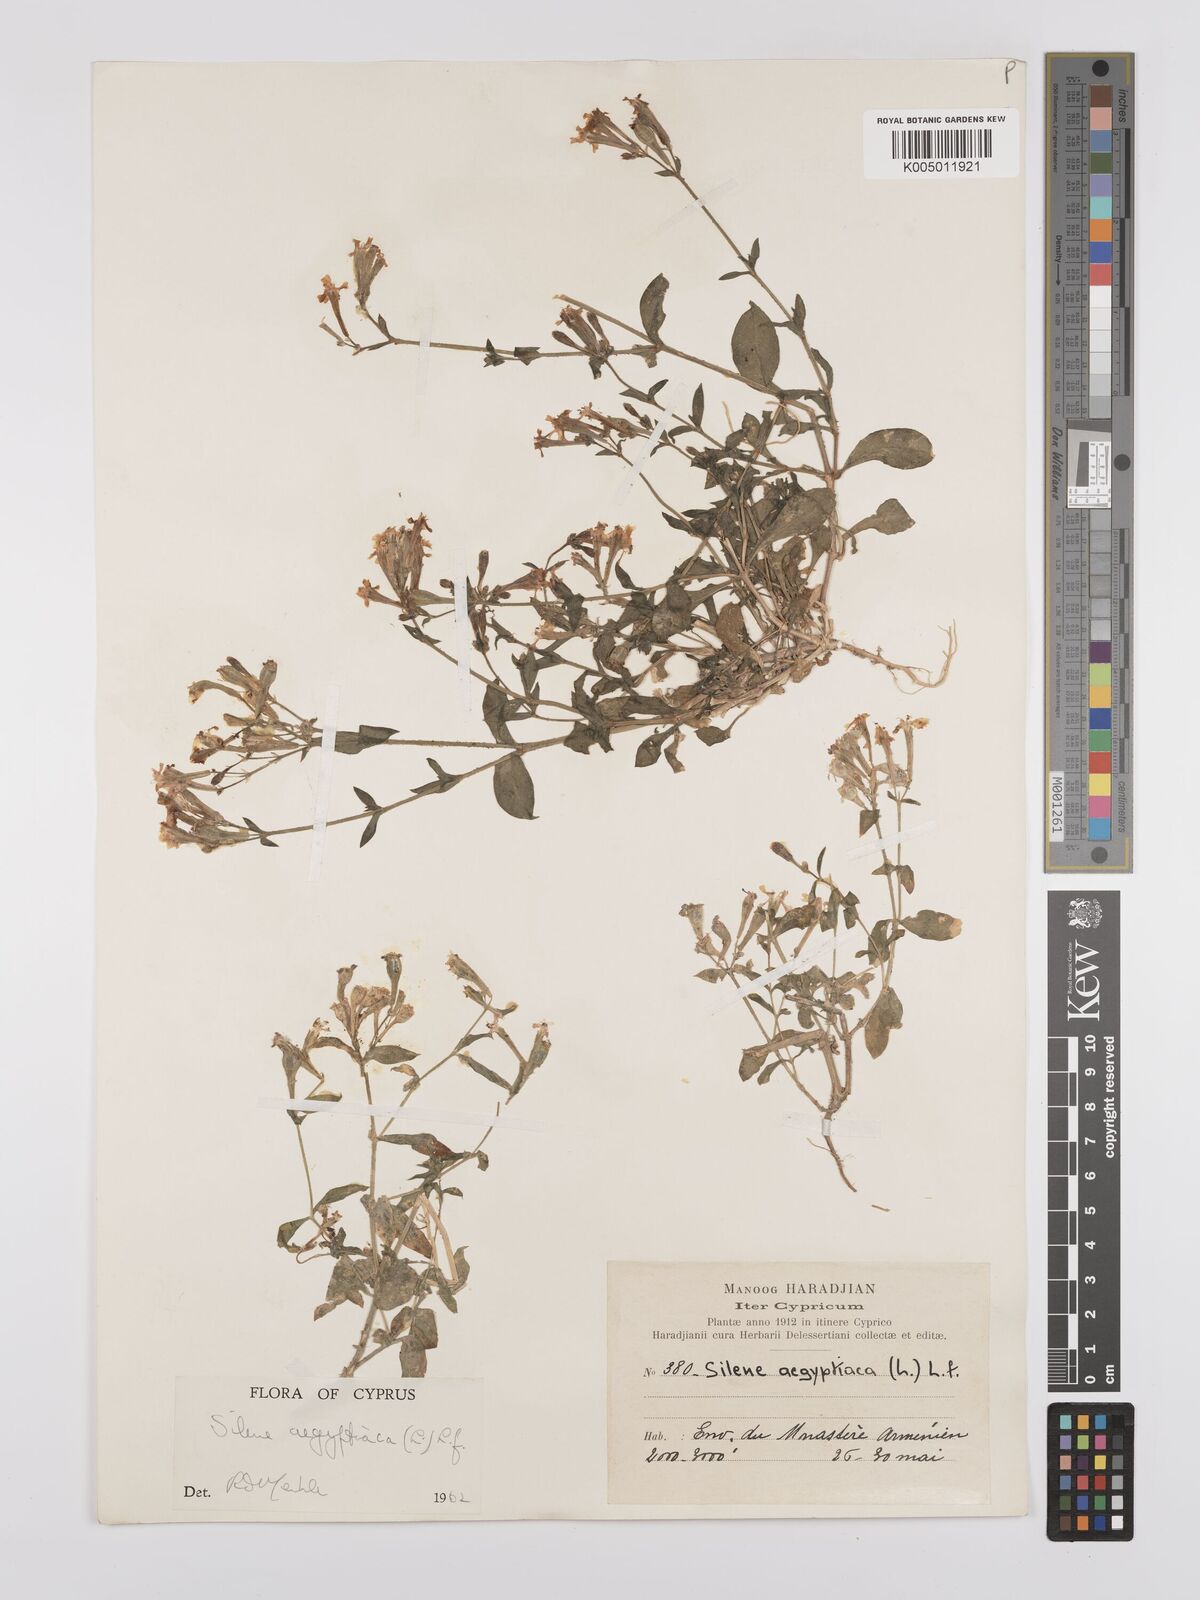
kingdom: Plantae
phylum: Tracheophyta
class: Magnoliopsida
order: Caryophyllales
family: Caryophyllaceae
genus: Silene
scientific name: Silene aegyptiaca
